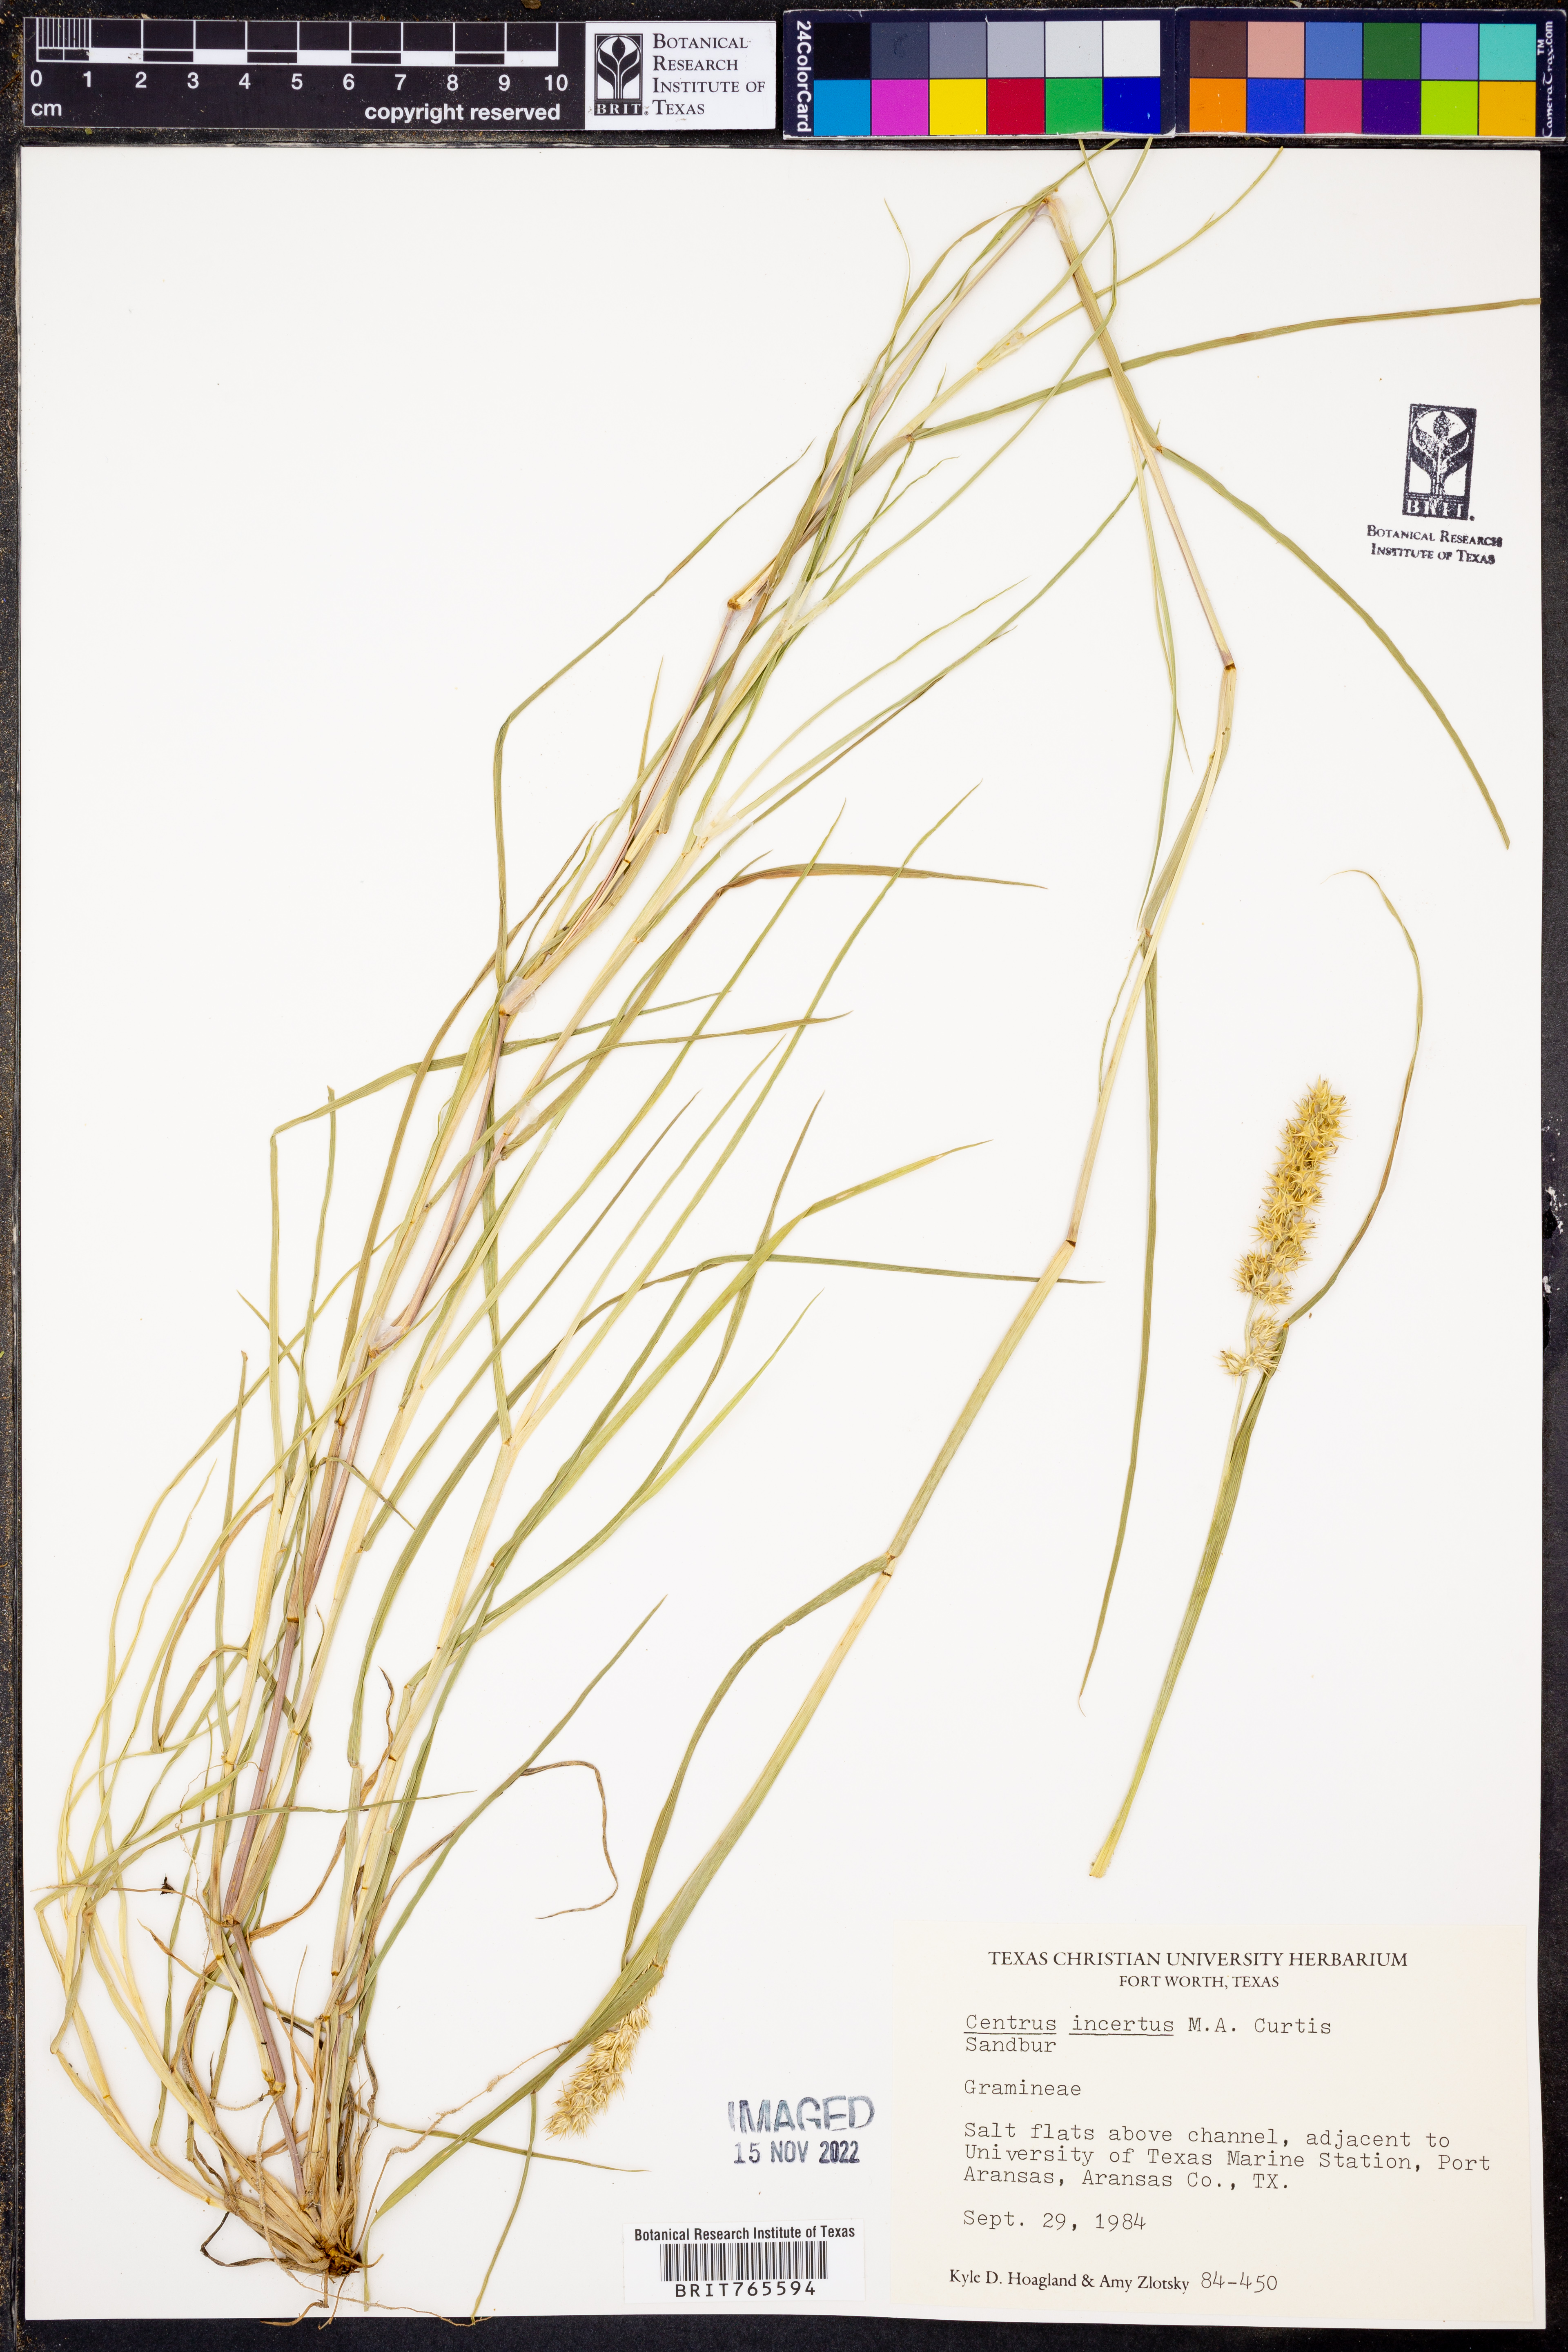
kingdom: Plantae
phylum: Tracheophyta
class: Liliopsida
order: Poales
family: Poaceae
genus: Cenchrus
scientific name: Cenchrus spinifex
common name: Coast sandbur
